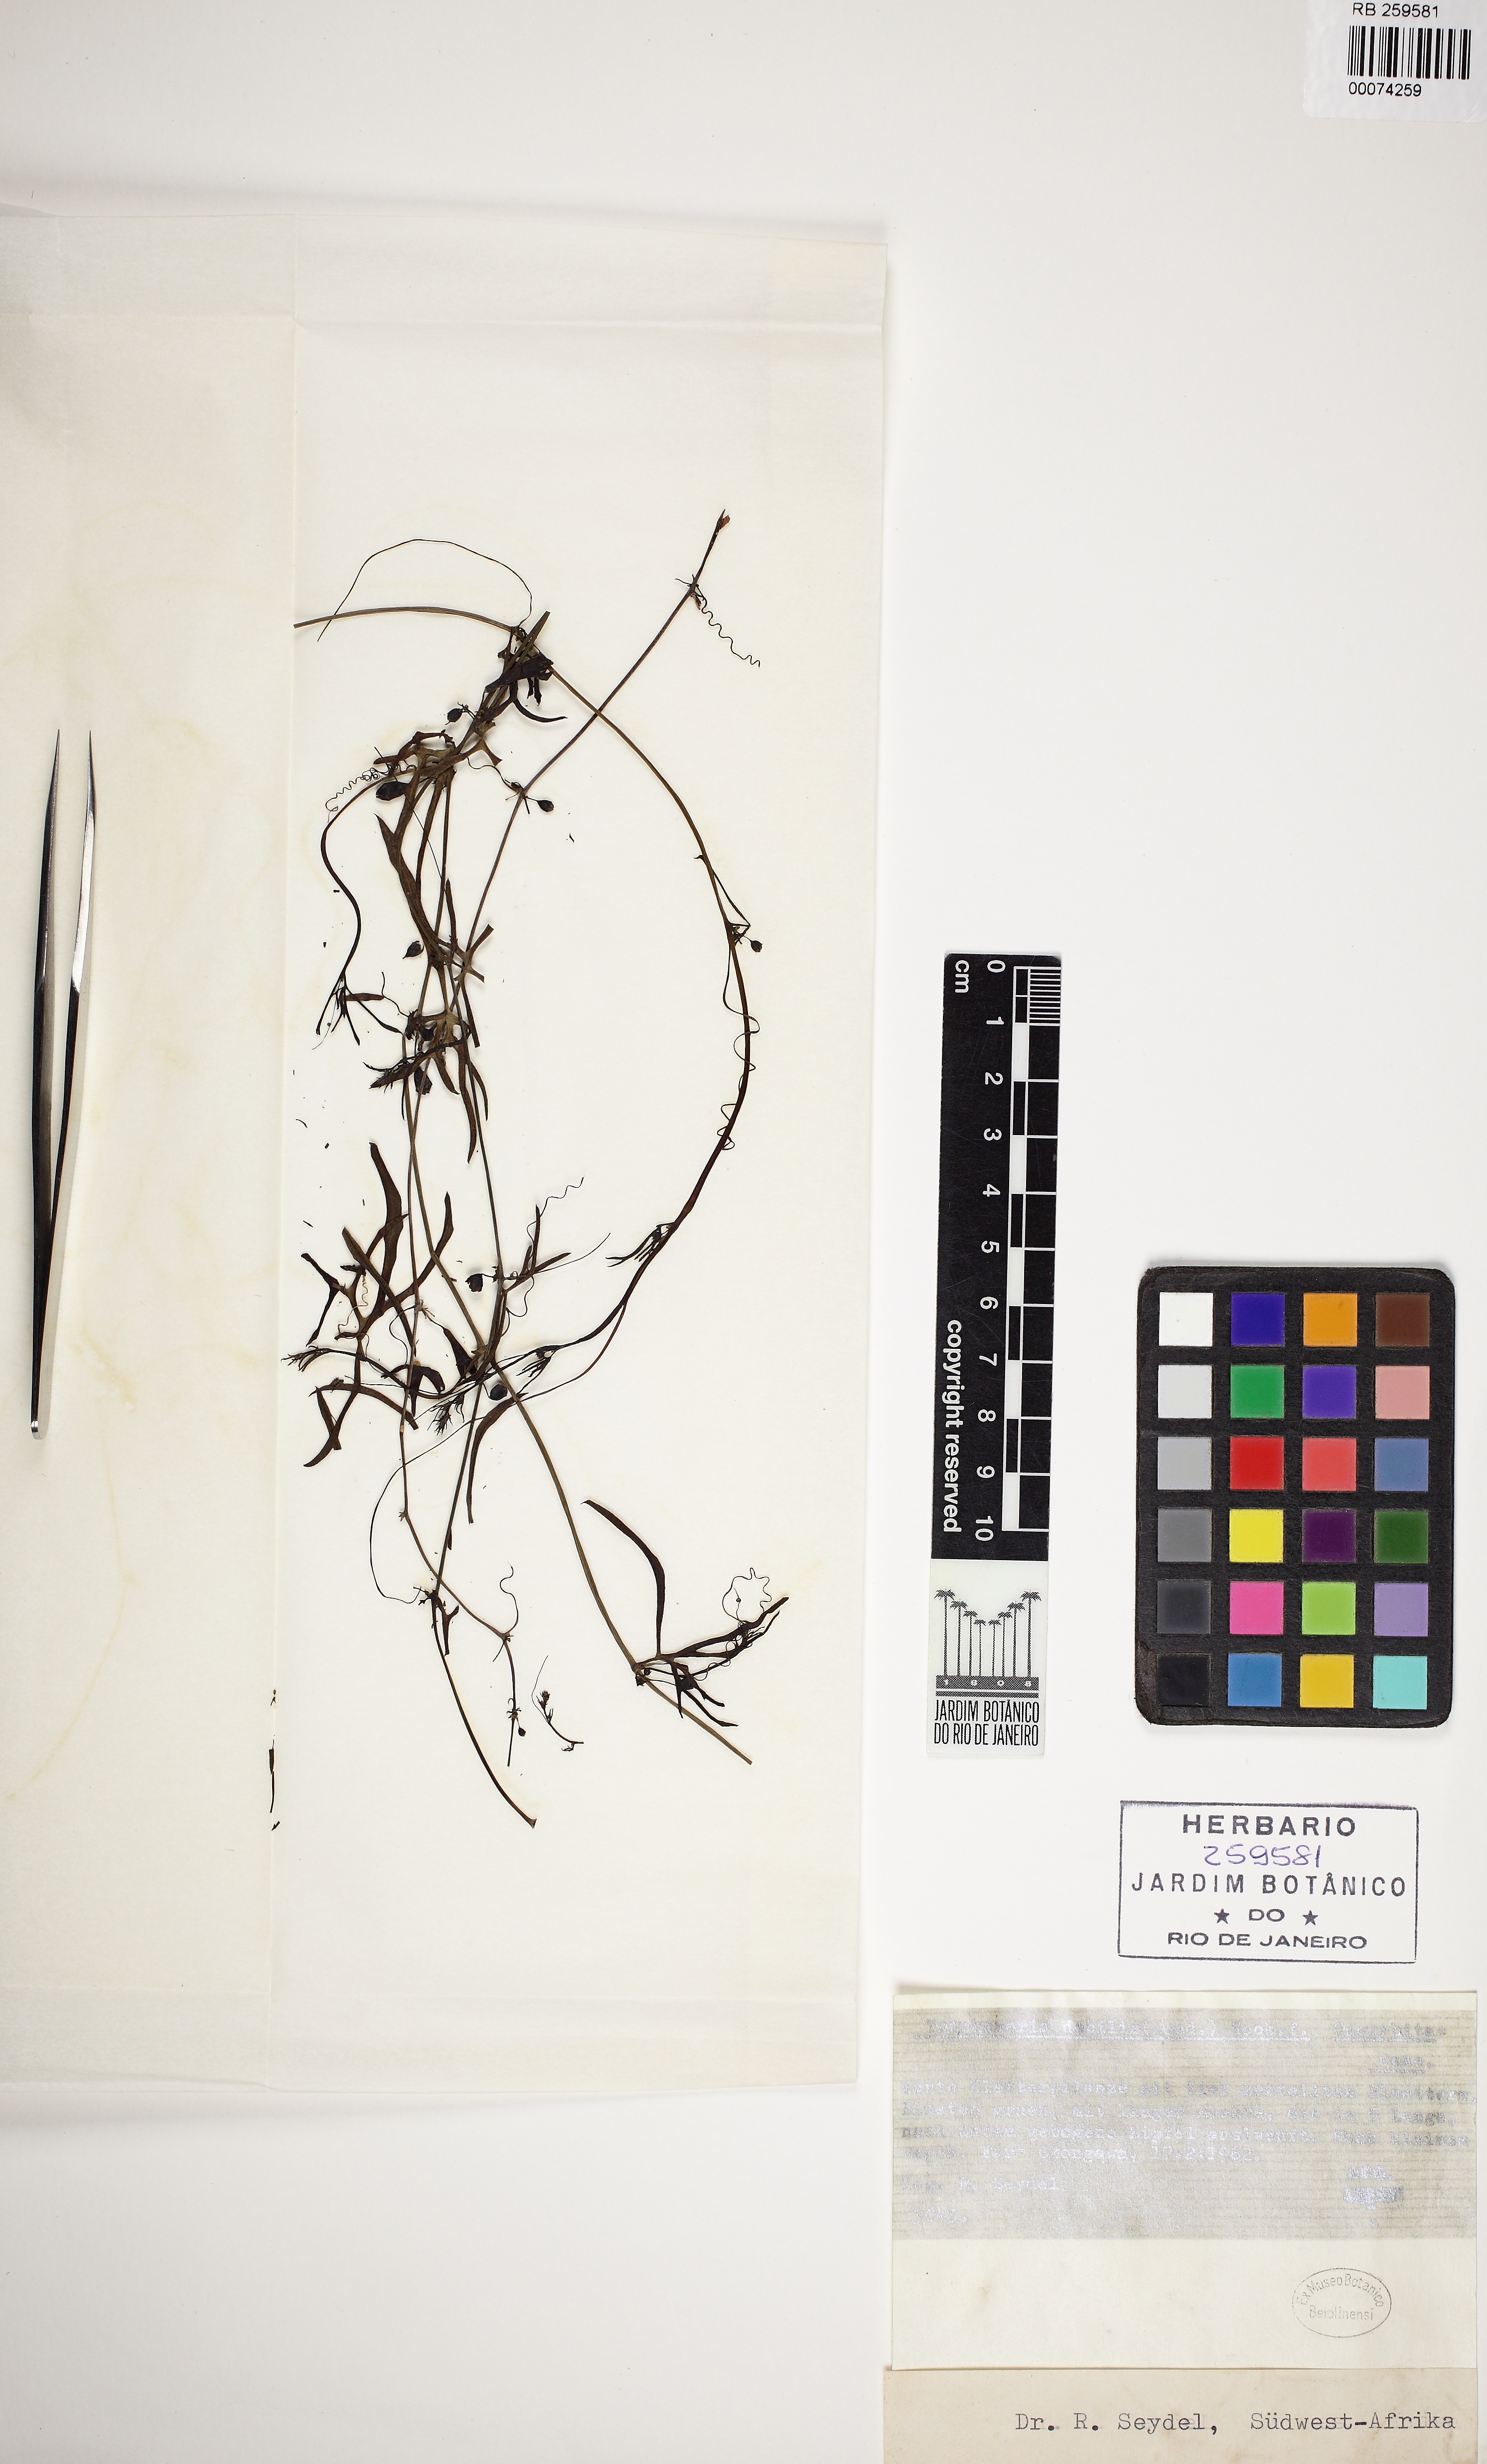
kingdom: Plantae
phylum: Tracheophyta
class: Magnoliopsida
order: Cucurbitales
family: Cucurbitaceae
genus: Trochomeria
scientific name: Trochomeria debilis
